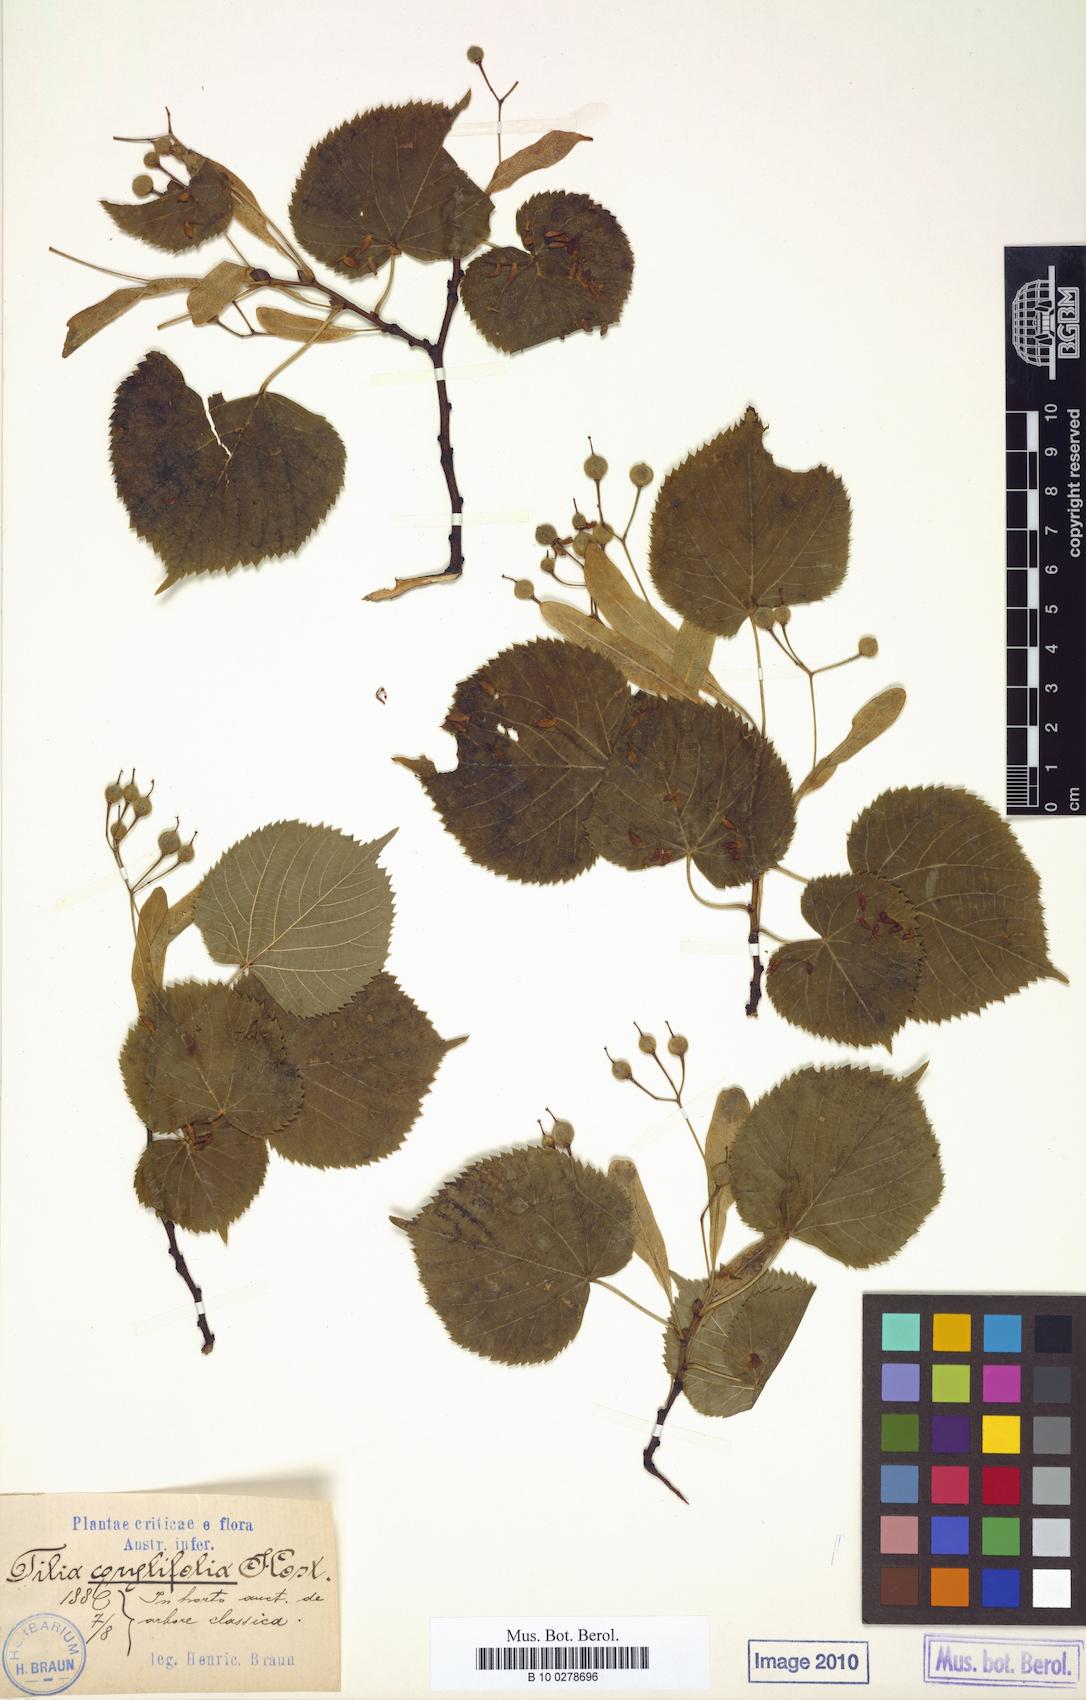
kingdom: Plantae
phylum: Tracheophyta
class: Magnoliopsida
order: Malvales
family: Malvaceae
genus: Tilia
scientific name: Tilia platyphyllos
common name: Large-leaved lime
